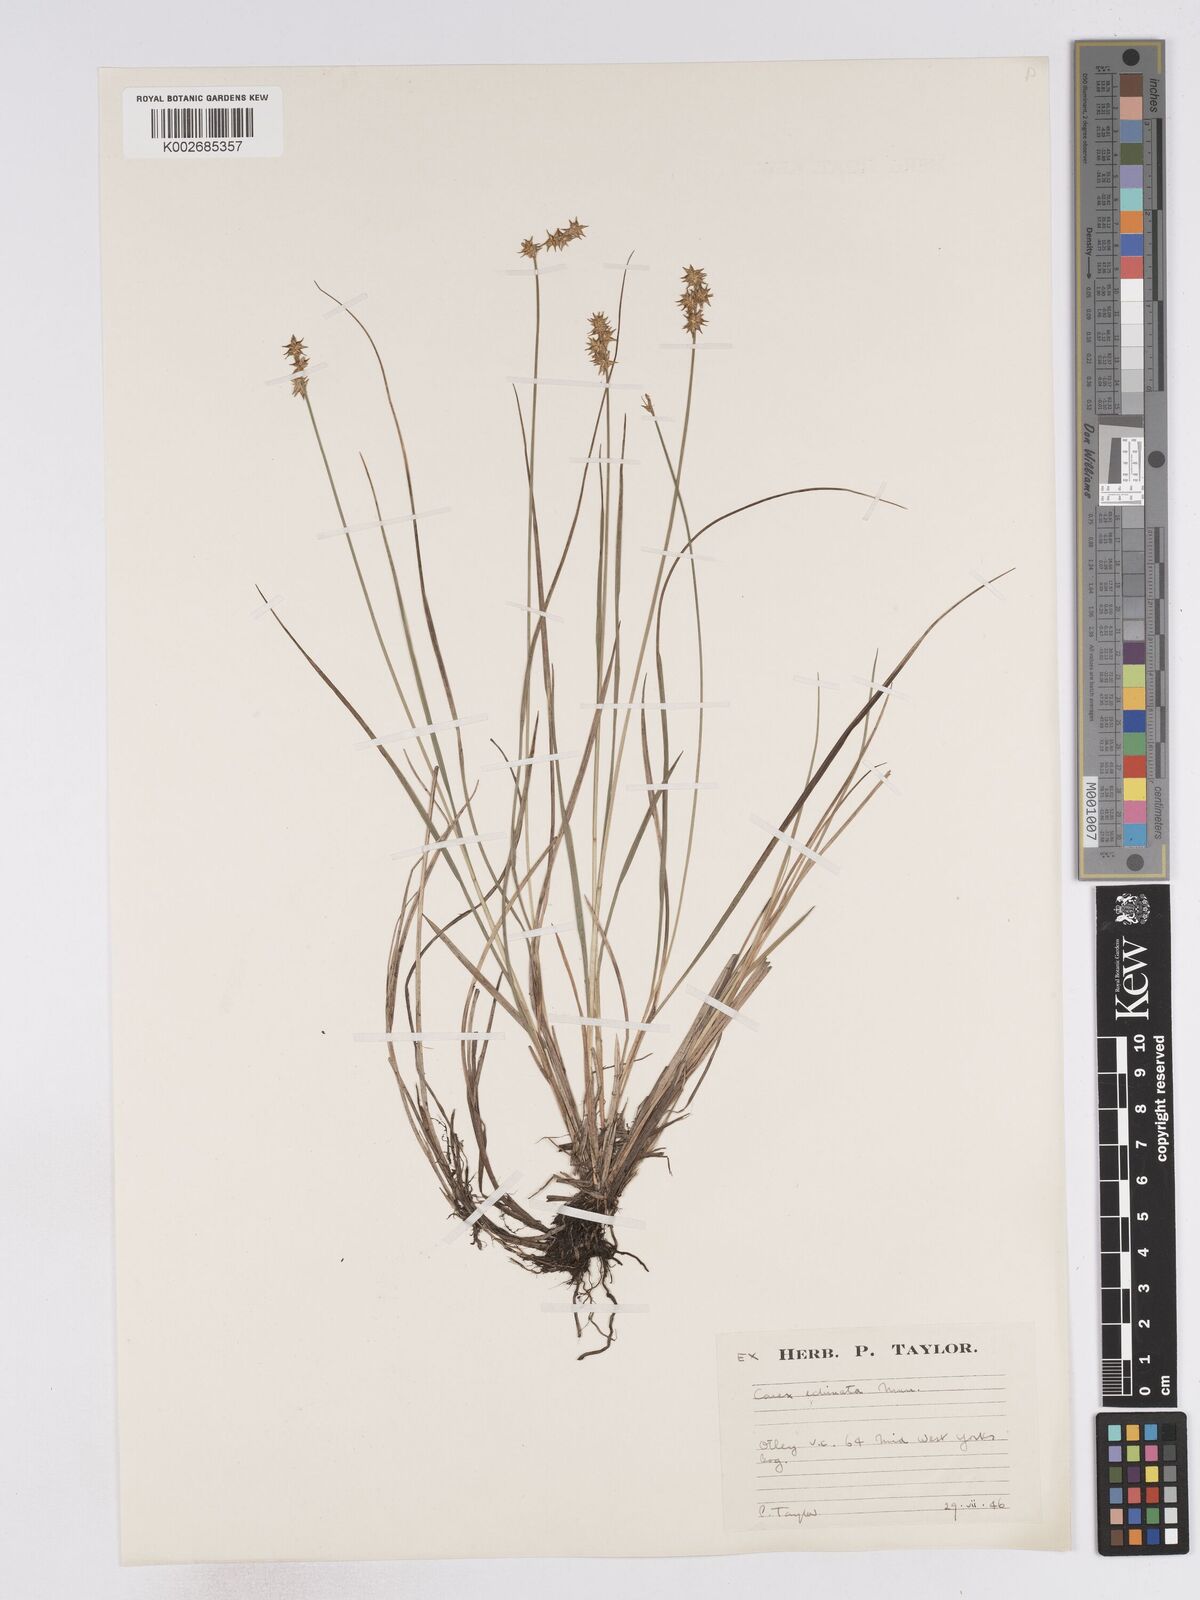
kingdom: Plantae
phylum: Tracheophyta
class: Liliopsida
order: Poales
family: Cyperaceae
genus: Carex
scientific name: Carex echinata
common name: Star sedge
